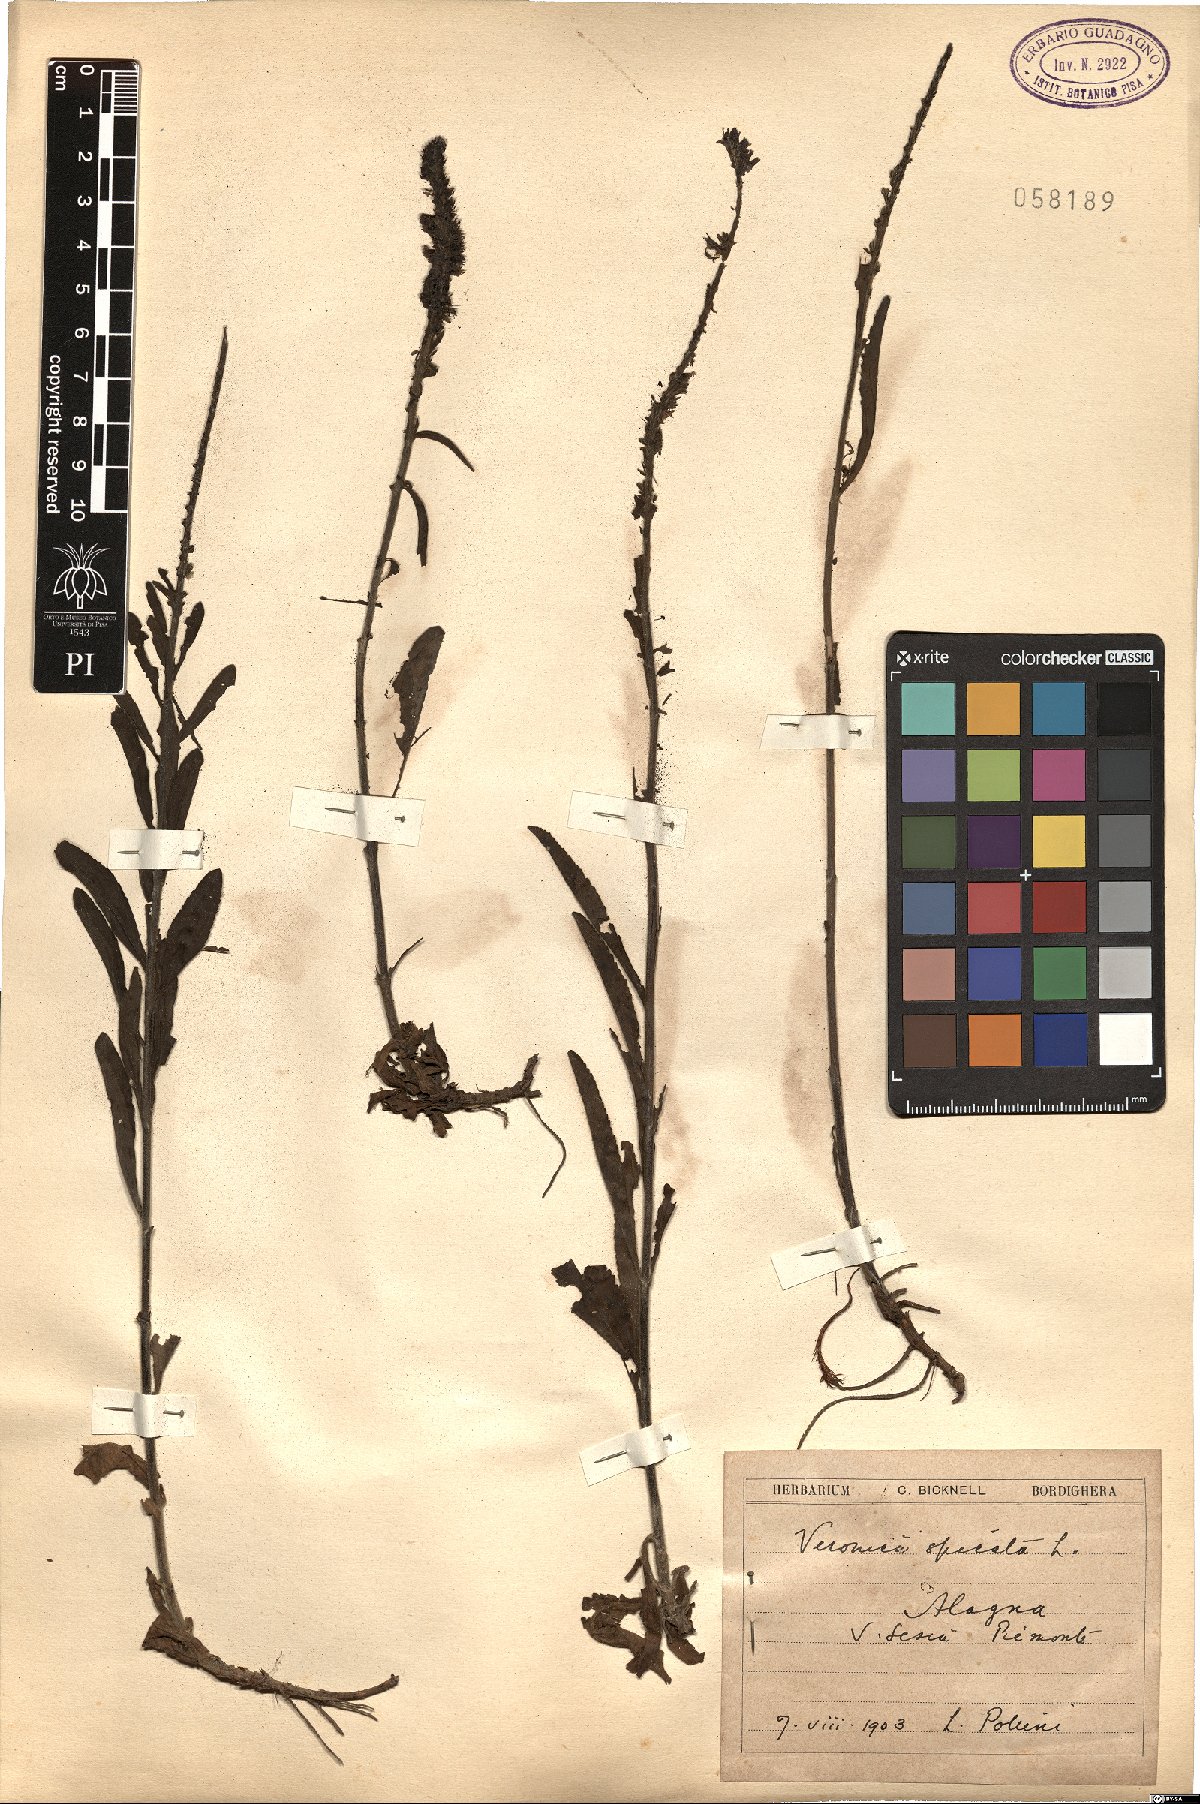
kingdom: Plantae
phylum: Tracheophyta
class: Magnoliopsida
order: Lamiales
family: Plantaginaceae
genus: Veronica
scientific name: Veronica spicata
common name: Spiked speedwell
